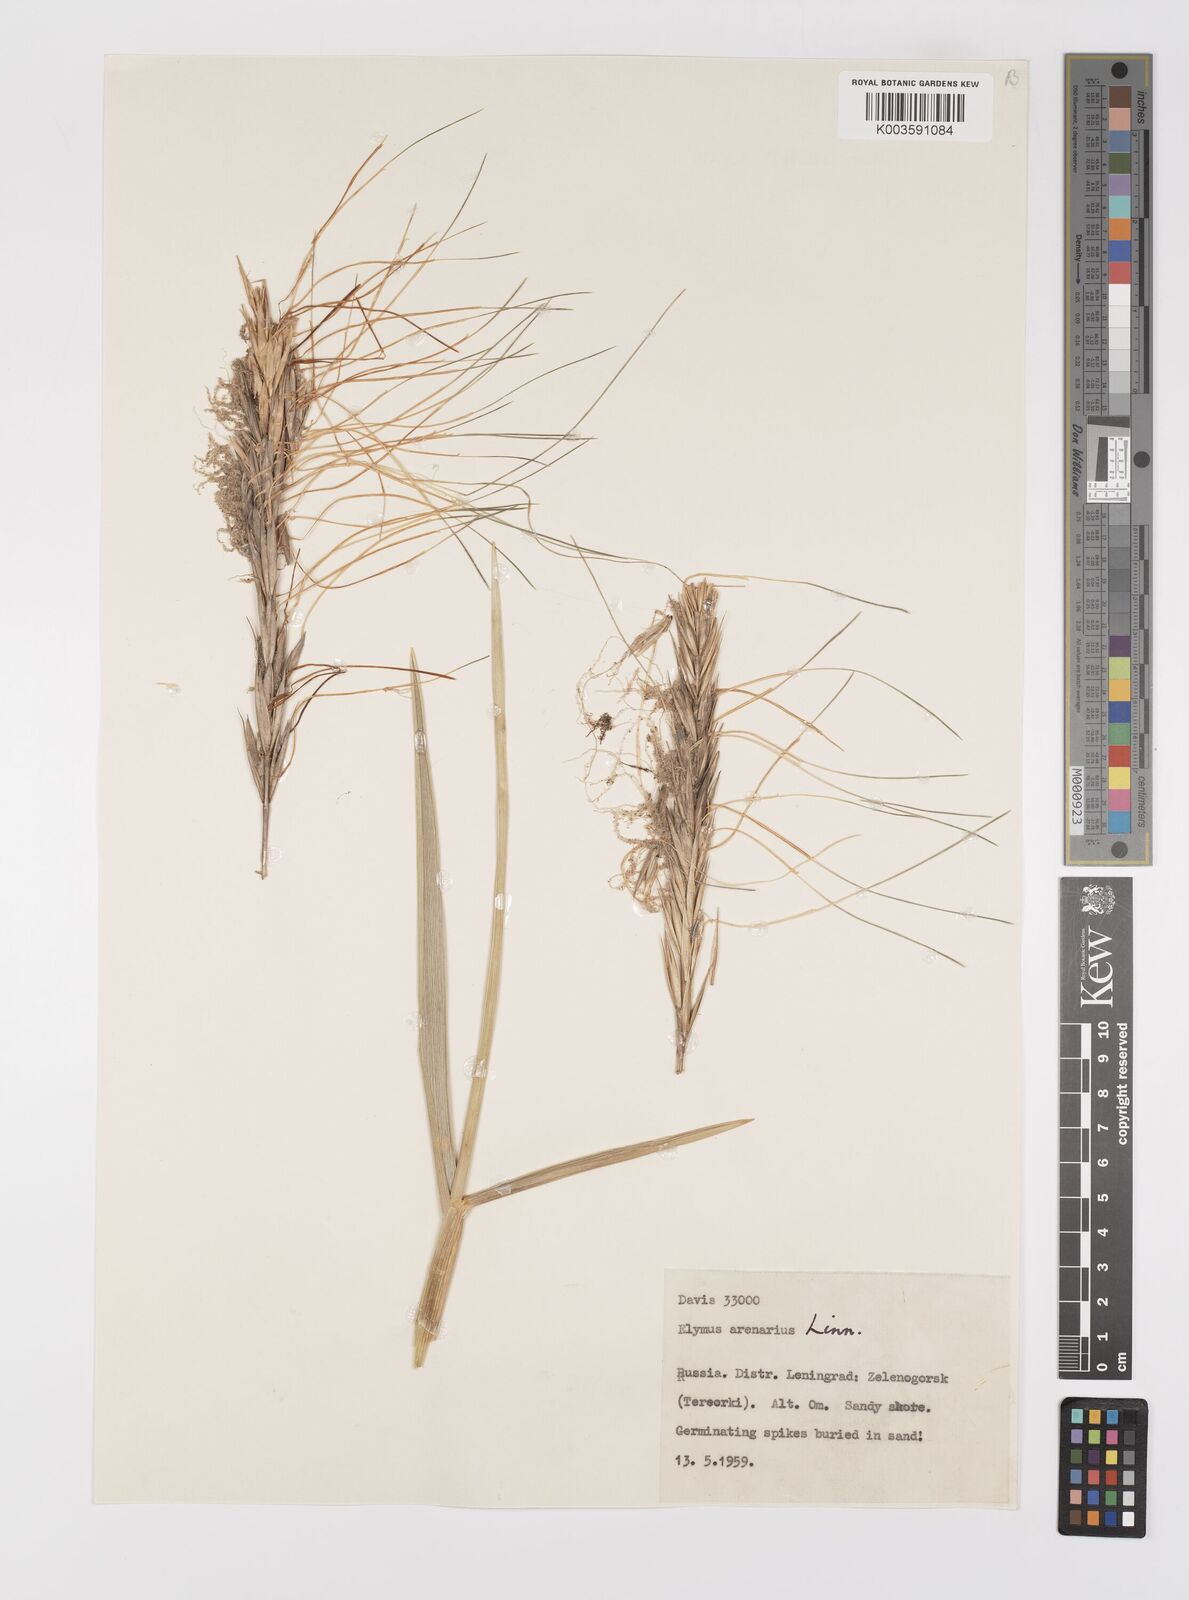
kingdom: Plantae
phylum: Tracheophyta
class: Liliopsida
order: Poales
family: Poaceae
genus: Leymus
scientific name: Leymus arenarius
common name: Lyme-grass
